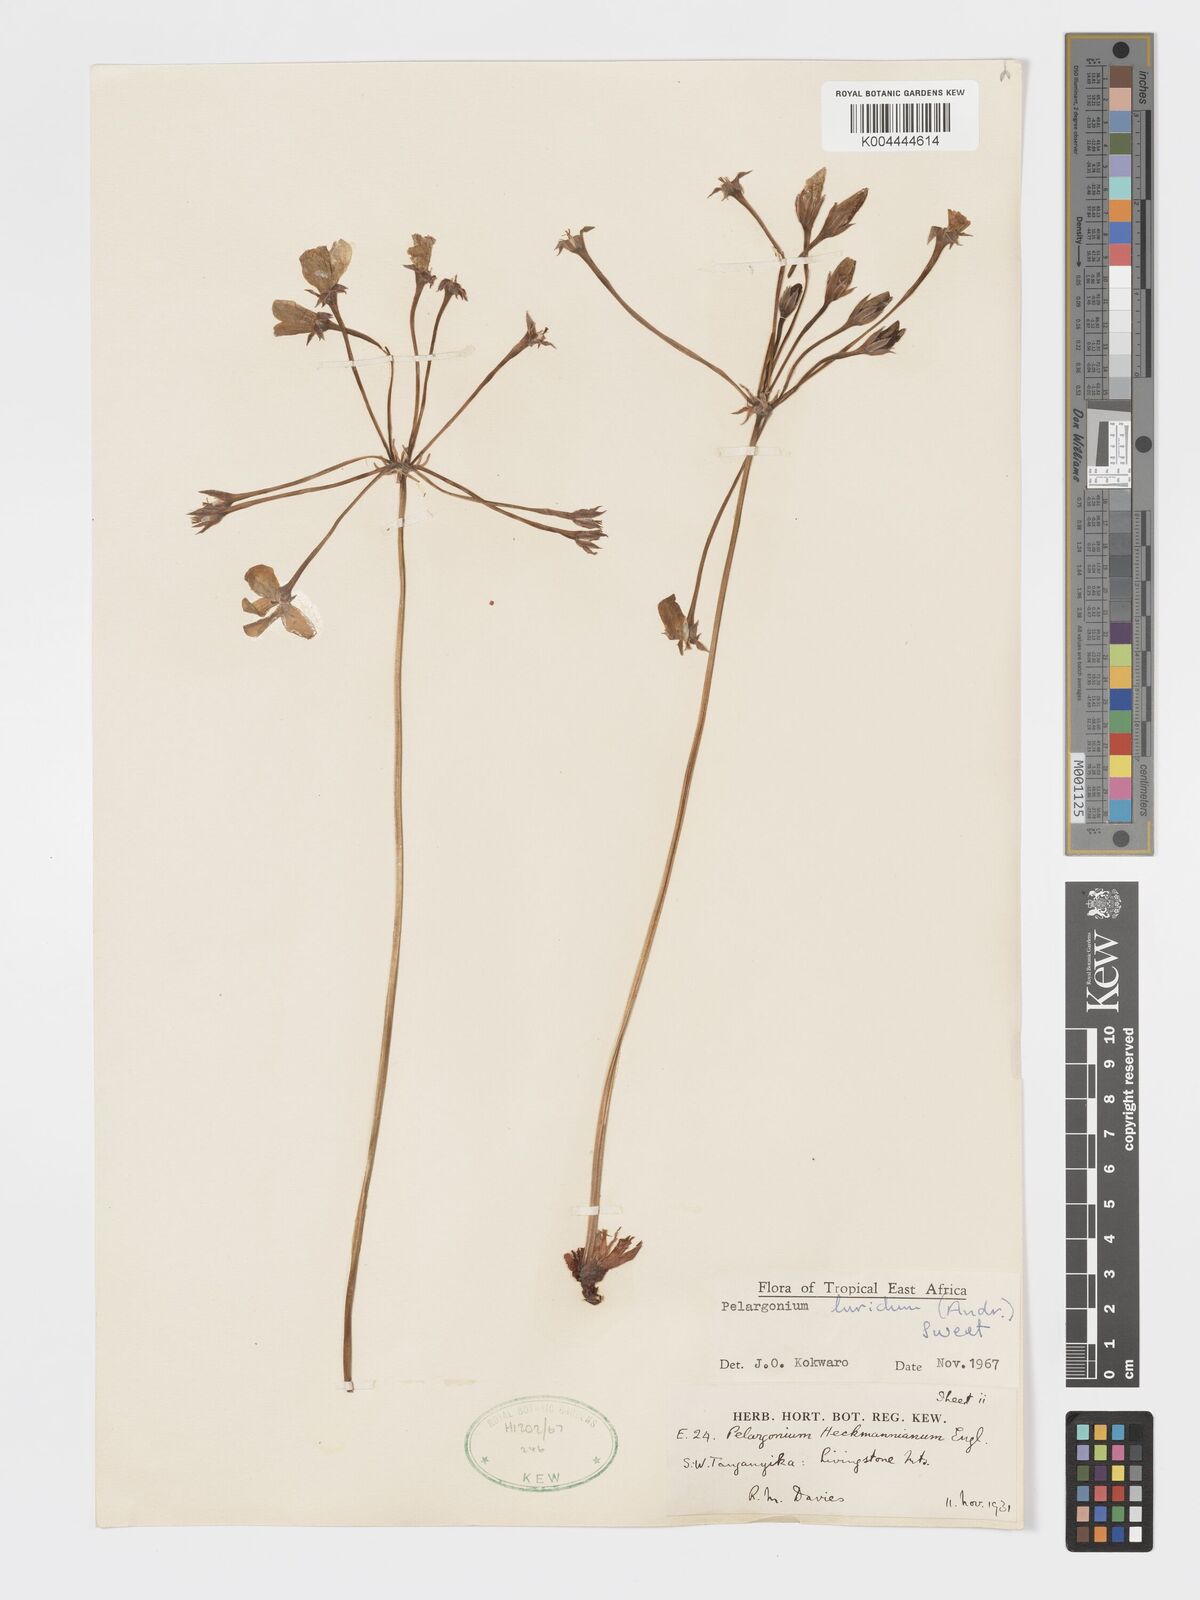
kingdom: Plantae
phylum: Tracheophyta
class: Magnoliopsida
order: Geraniales
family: Geraniaceae
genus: Pelargonium
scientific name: Pelargonium luridum
